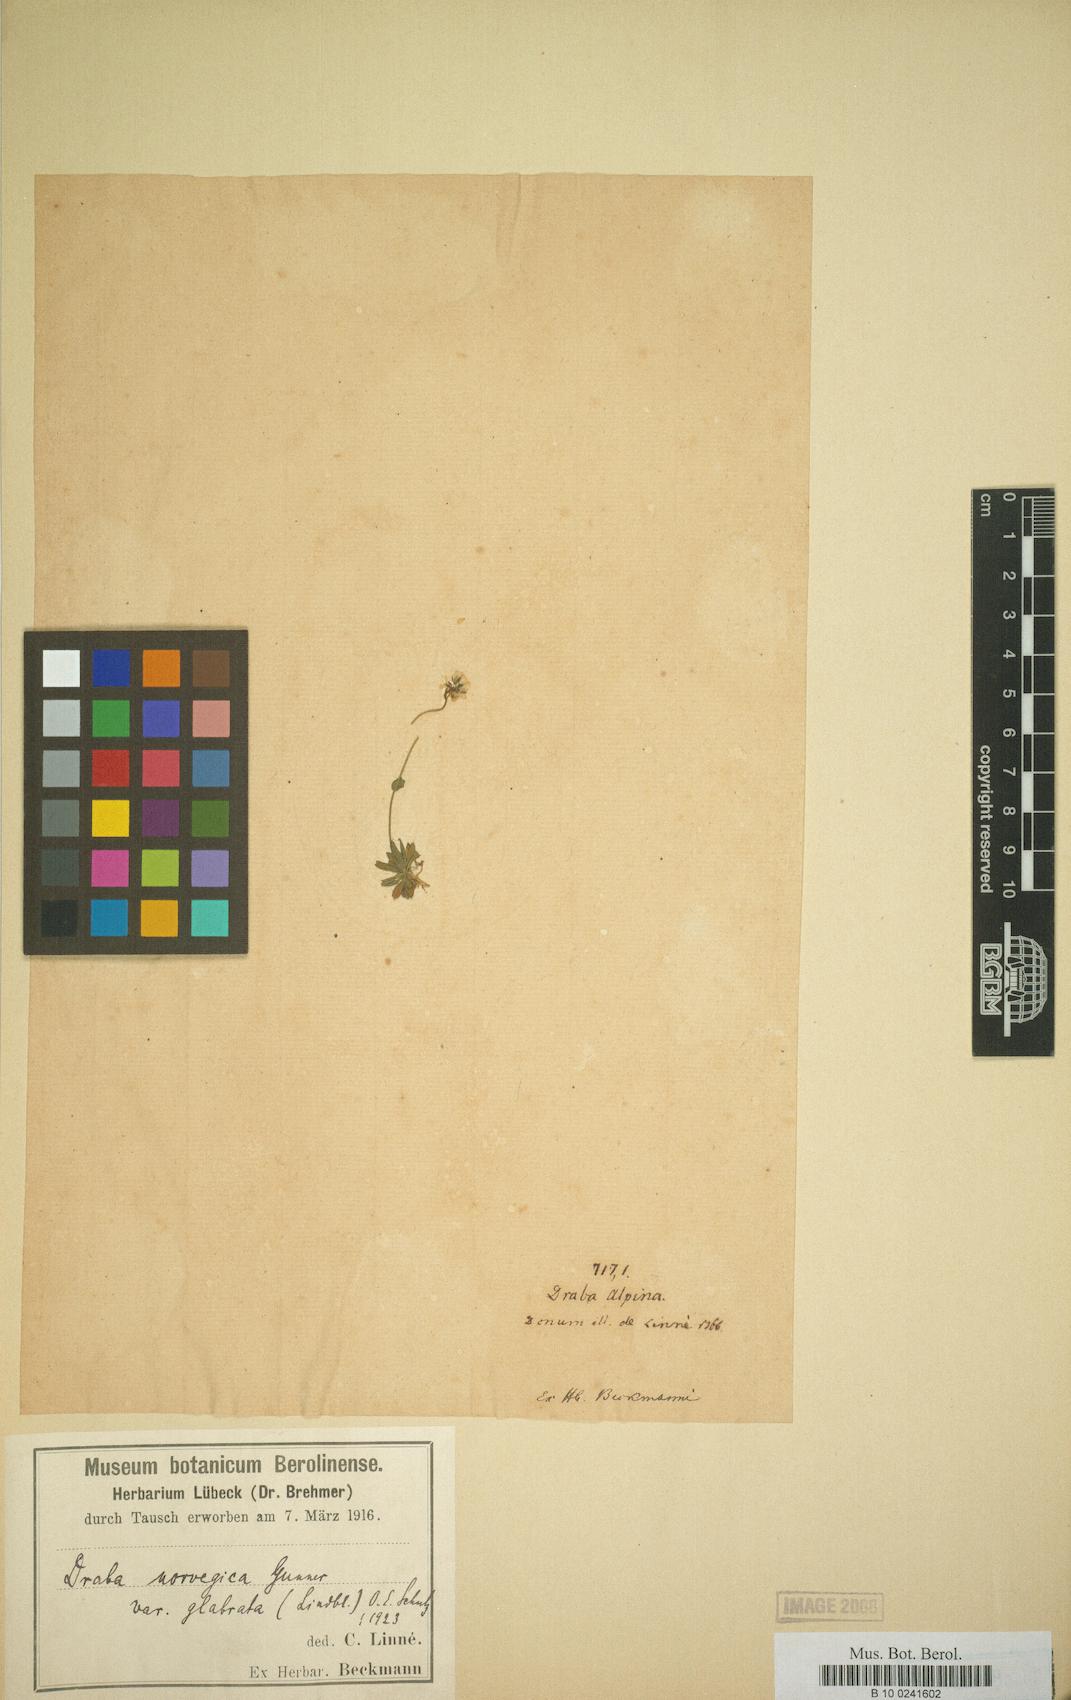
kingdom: Plantae
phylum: Tracheophyta
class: Magnoliopsida
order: Brassicales
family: Brassicaceae
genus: Draba
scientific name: Draba norvegica
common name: Rock whitlowgrass
